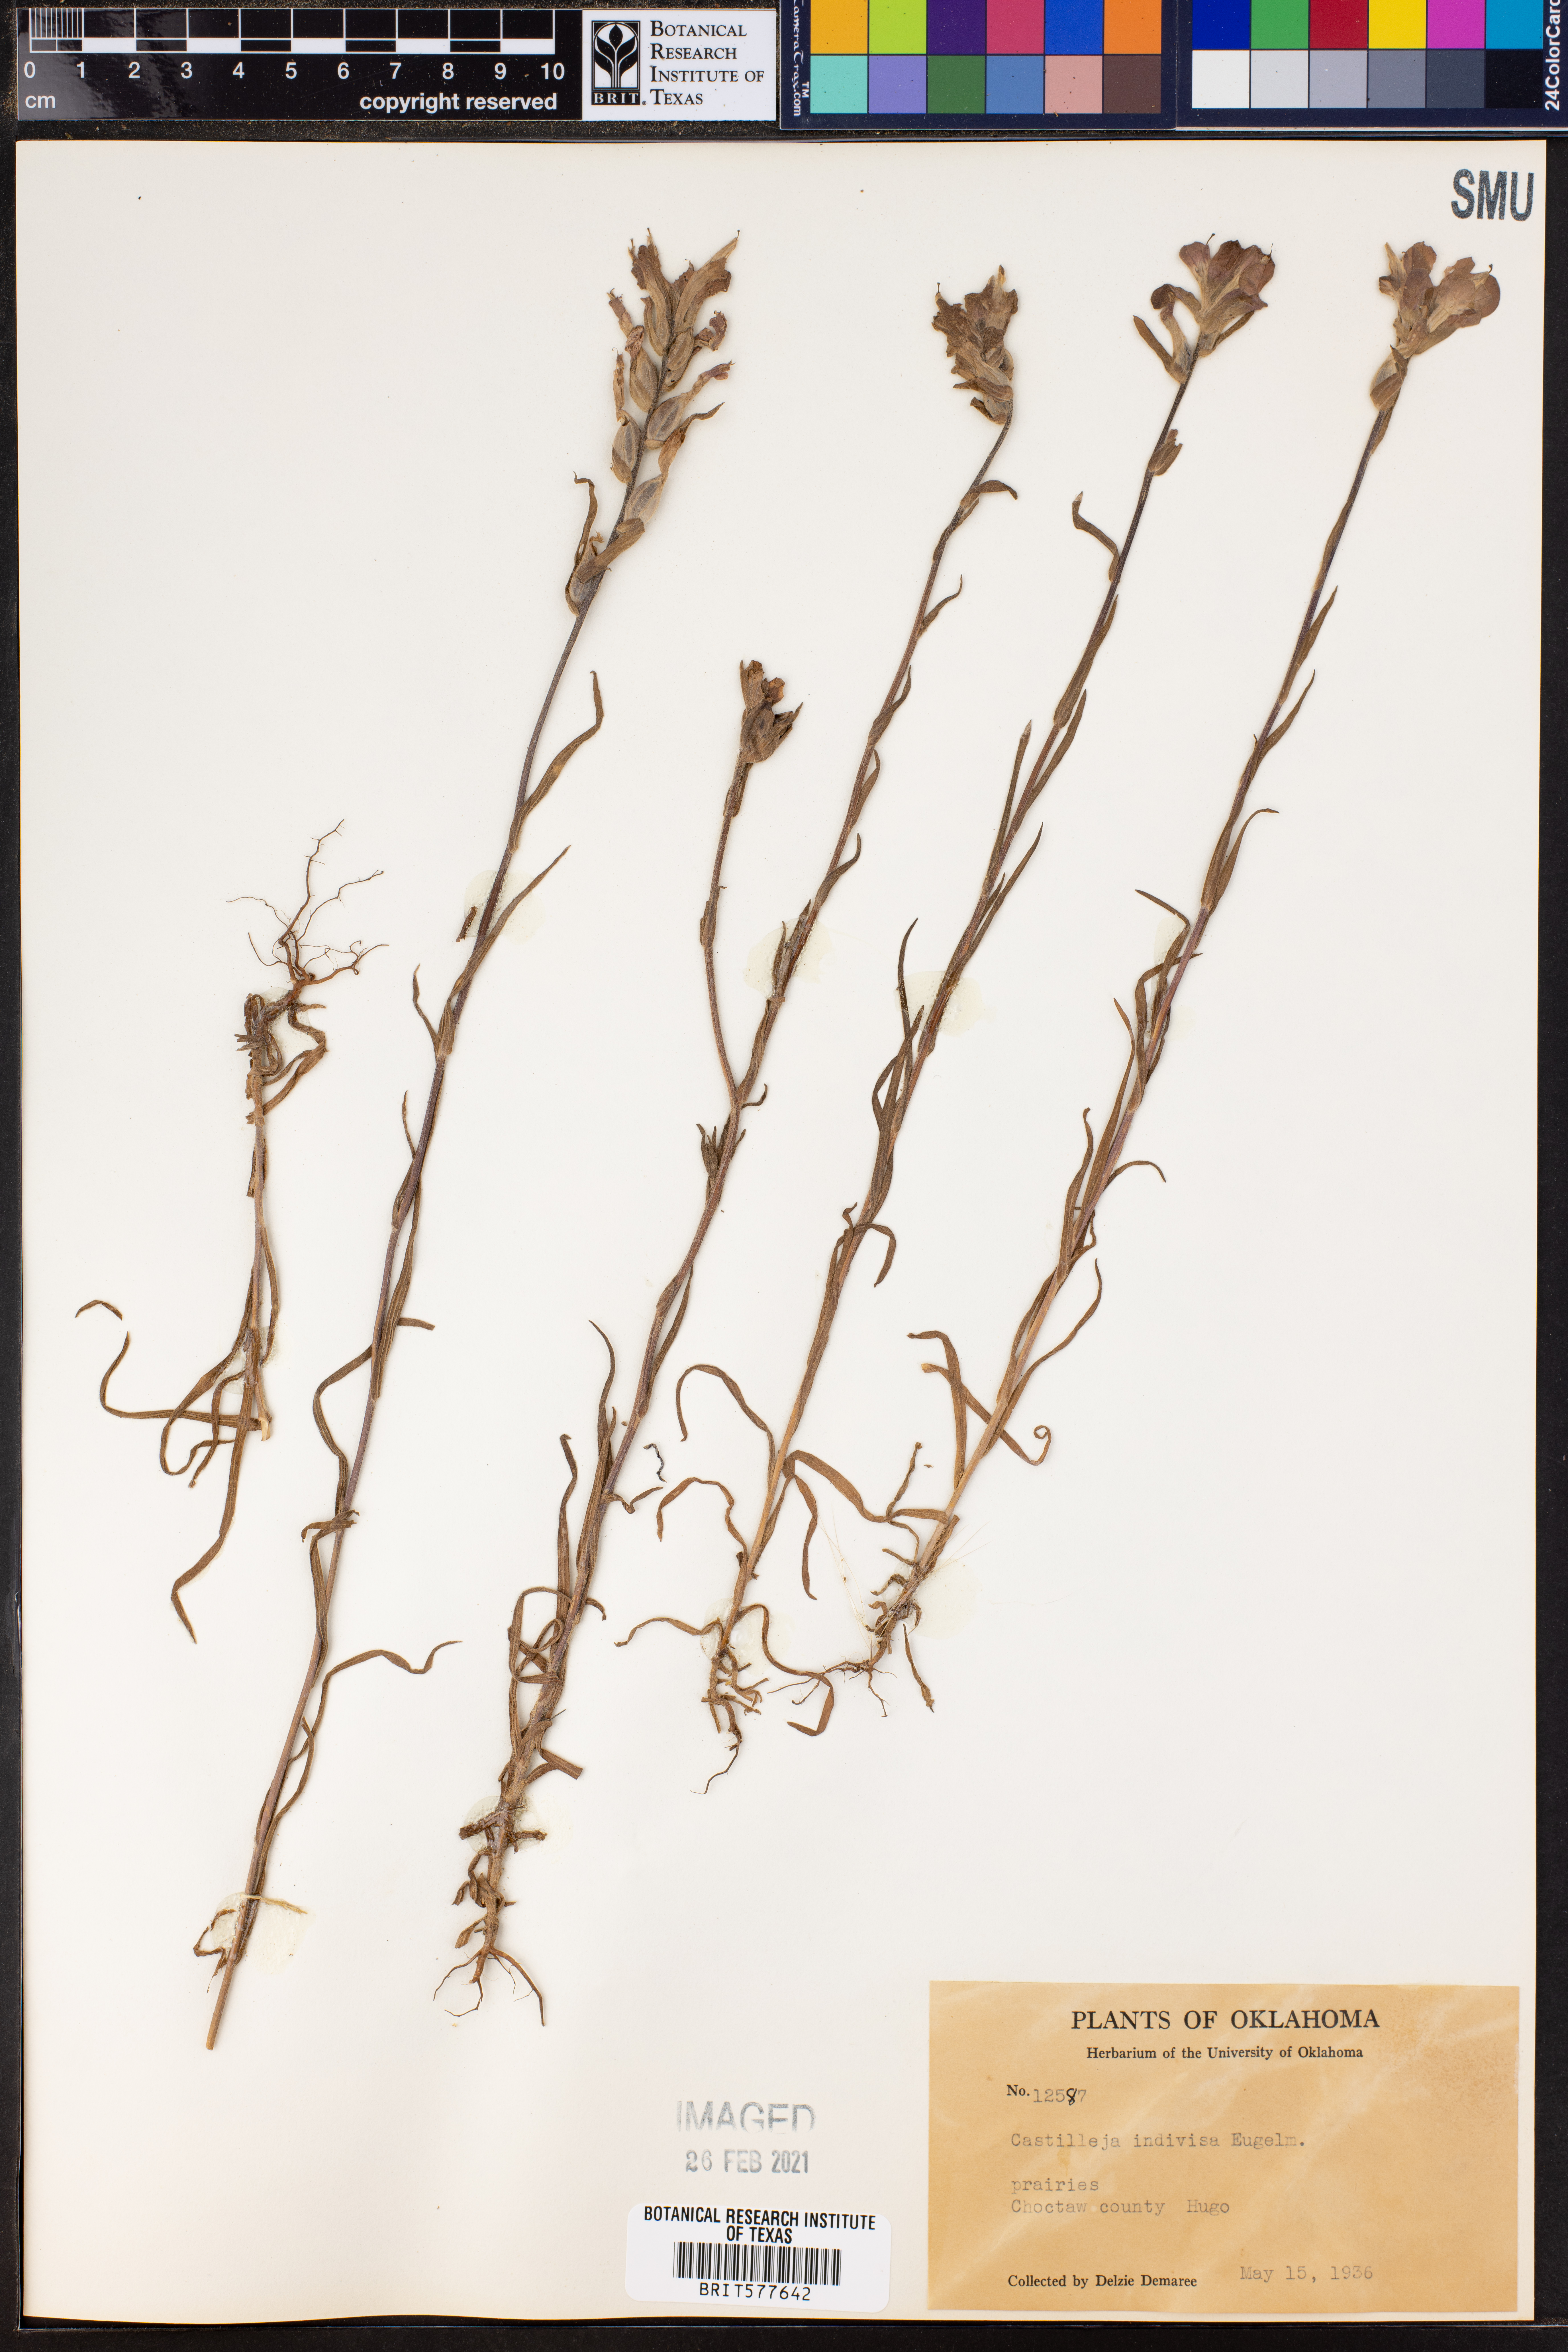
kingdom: Plantae
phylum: Tracheophyta
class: Magnoliopsida
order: Lamiales
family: Orobanchaceae
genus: Castilleja
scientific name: Castilleja indivisa
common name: Texas paintbrush
